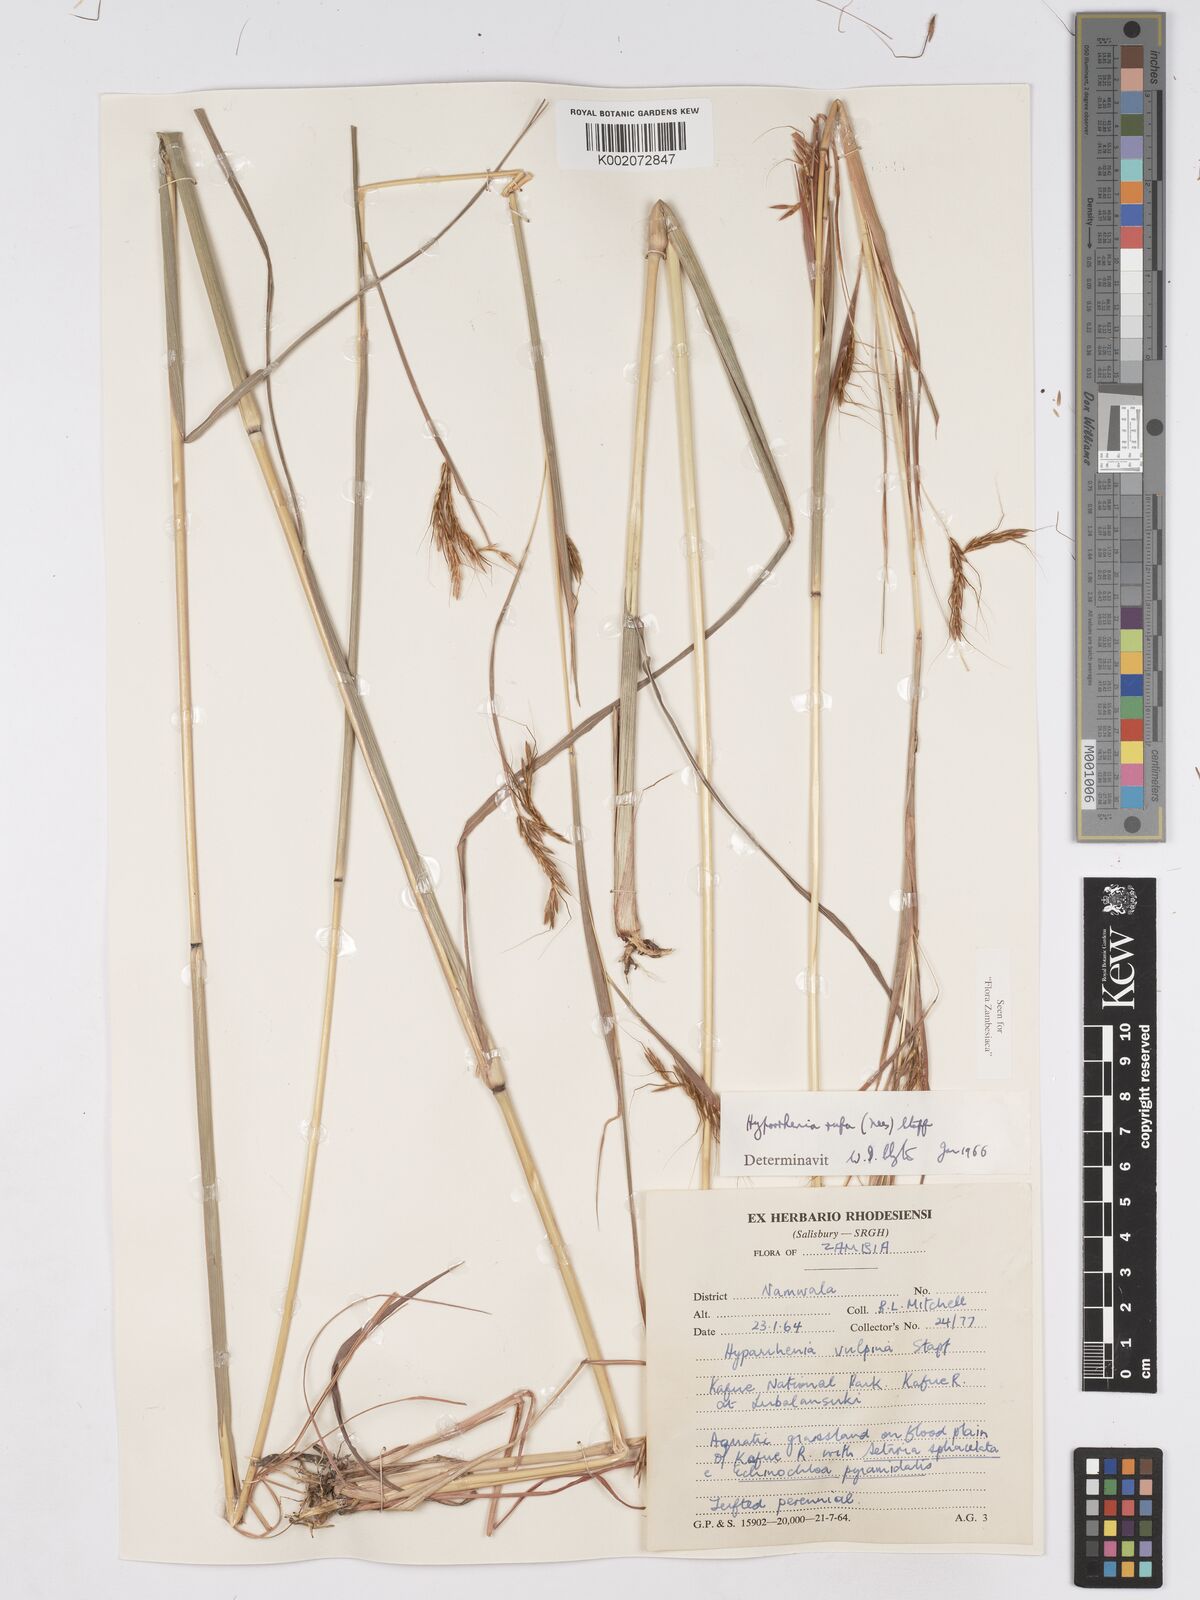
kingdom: Plantae
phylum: Tracheophyta
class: Liliopsida
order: Poales
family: Poaceae
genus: Hyparrhenia
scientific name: Hyparrhenia rufa
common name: Jaraguagrass
